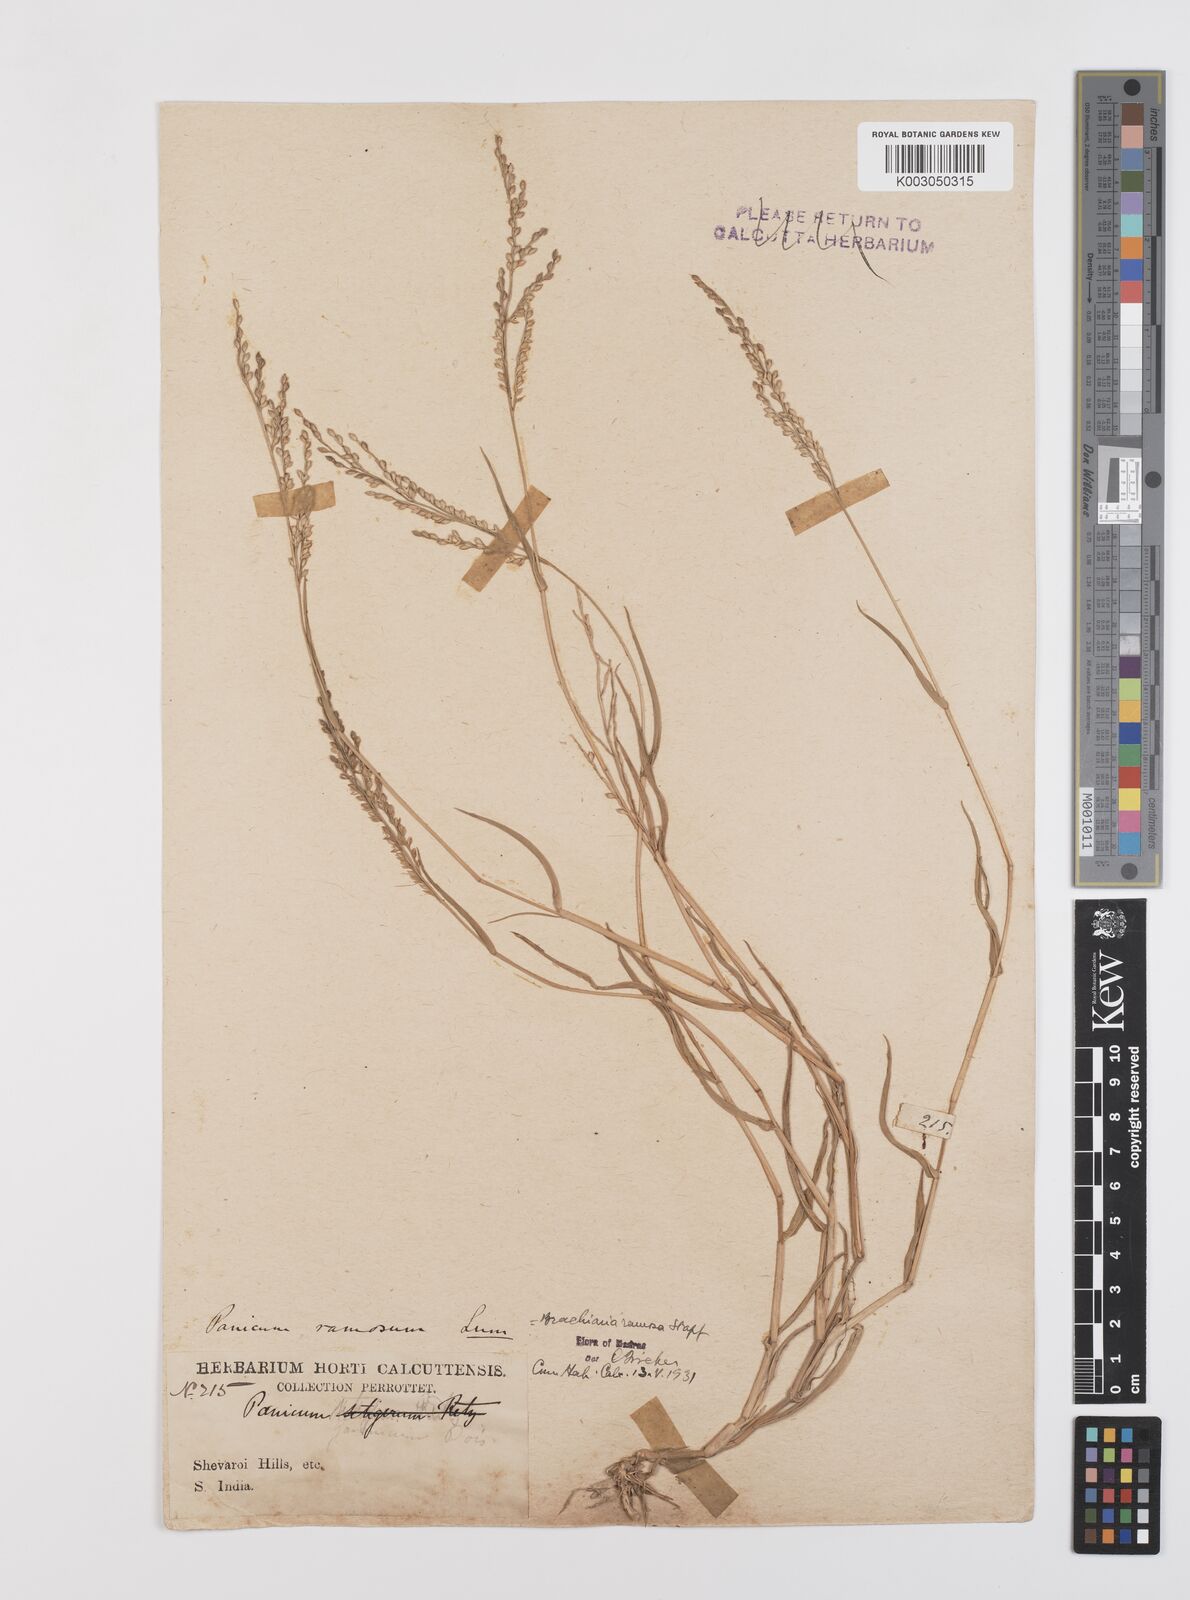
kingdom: Plantae
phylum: Tracheophyta
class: Liliopsida
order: Poales
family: Poaceae
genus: Urochloa
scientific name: Urochloa ramosa
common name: Browntop millet
